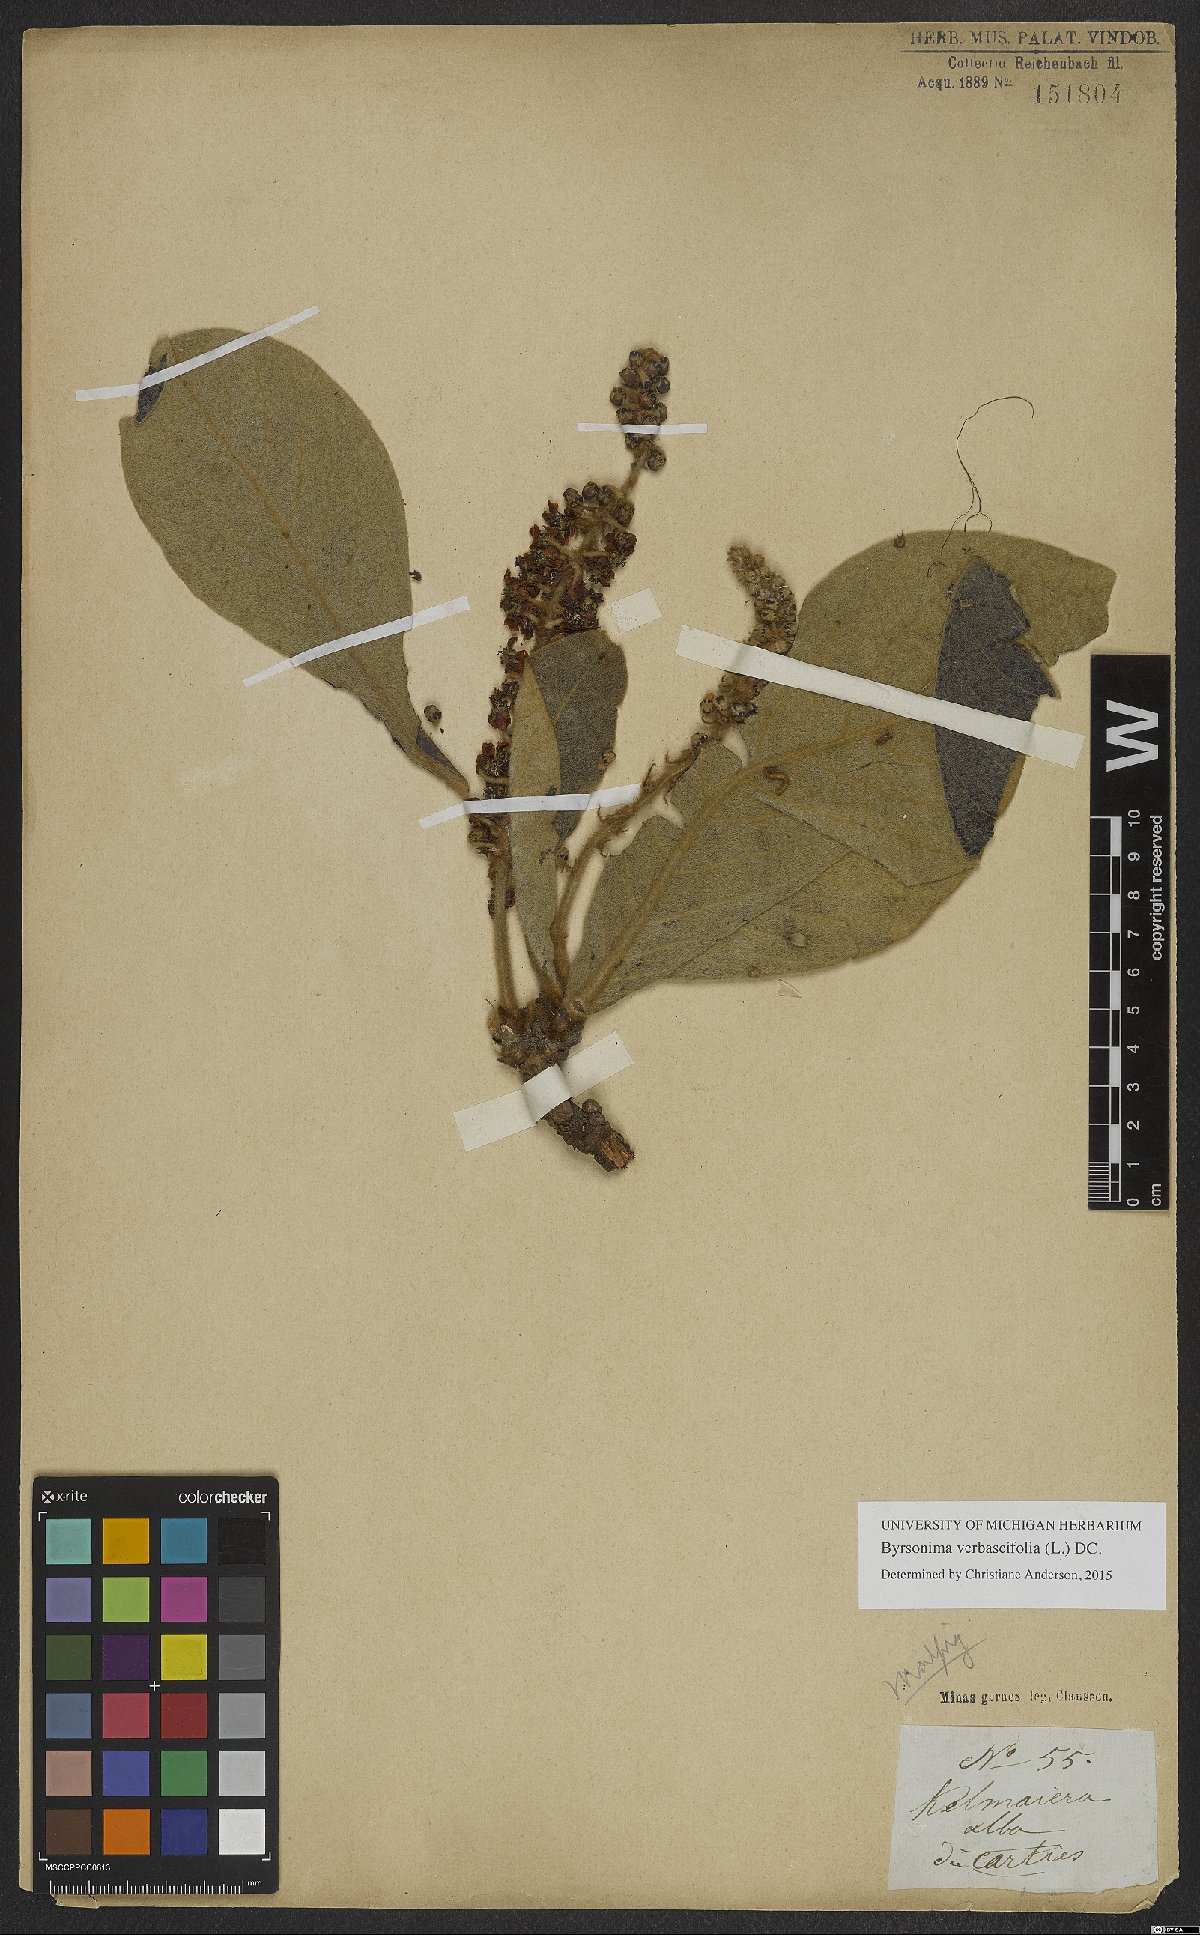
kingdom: Plantae
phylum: Tracheophyta
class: Magnoliopsida
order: Malpighiales
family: Malpighiaceae
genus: Byrsonima
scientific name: Byrsonima verbascifolia
